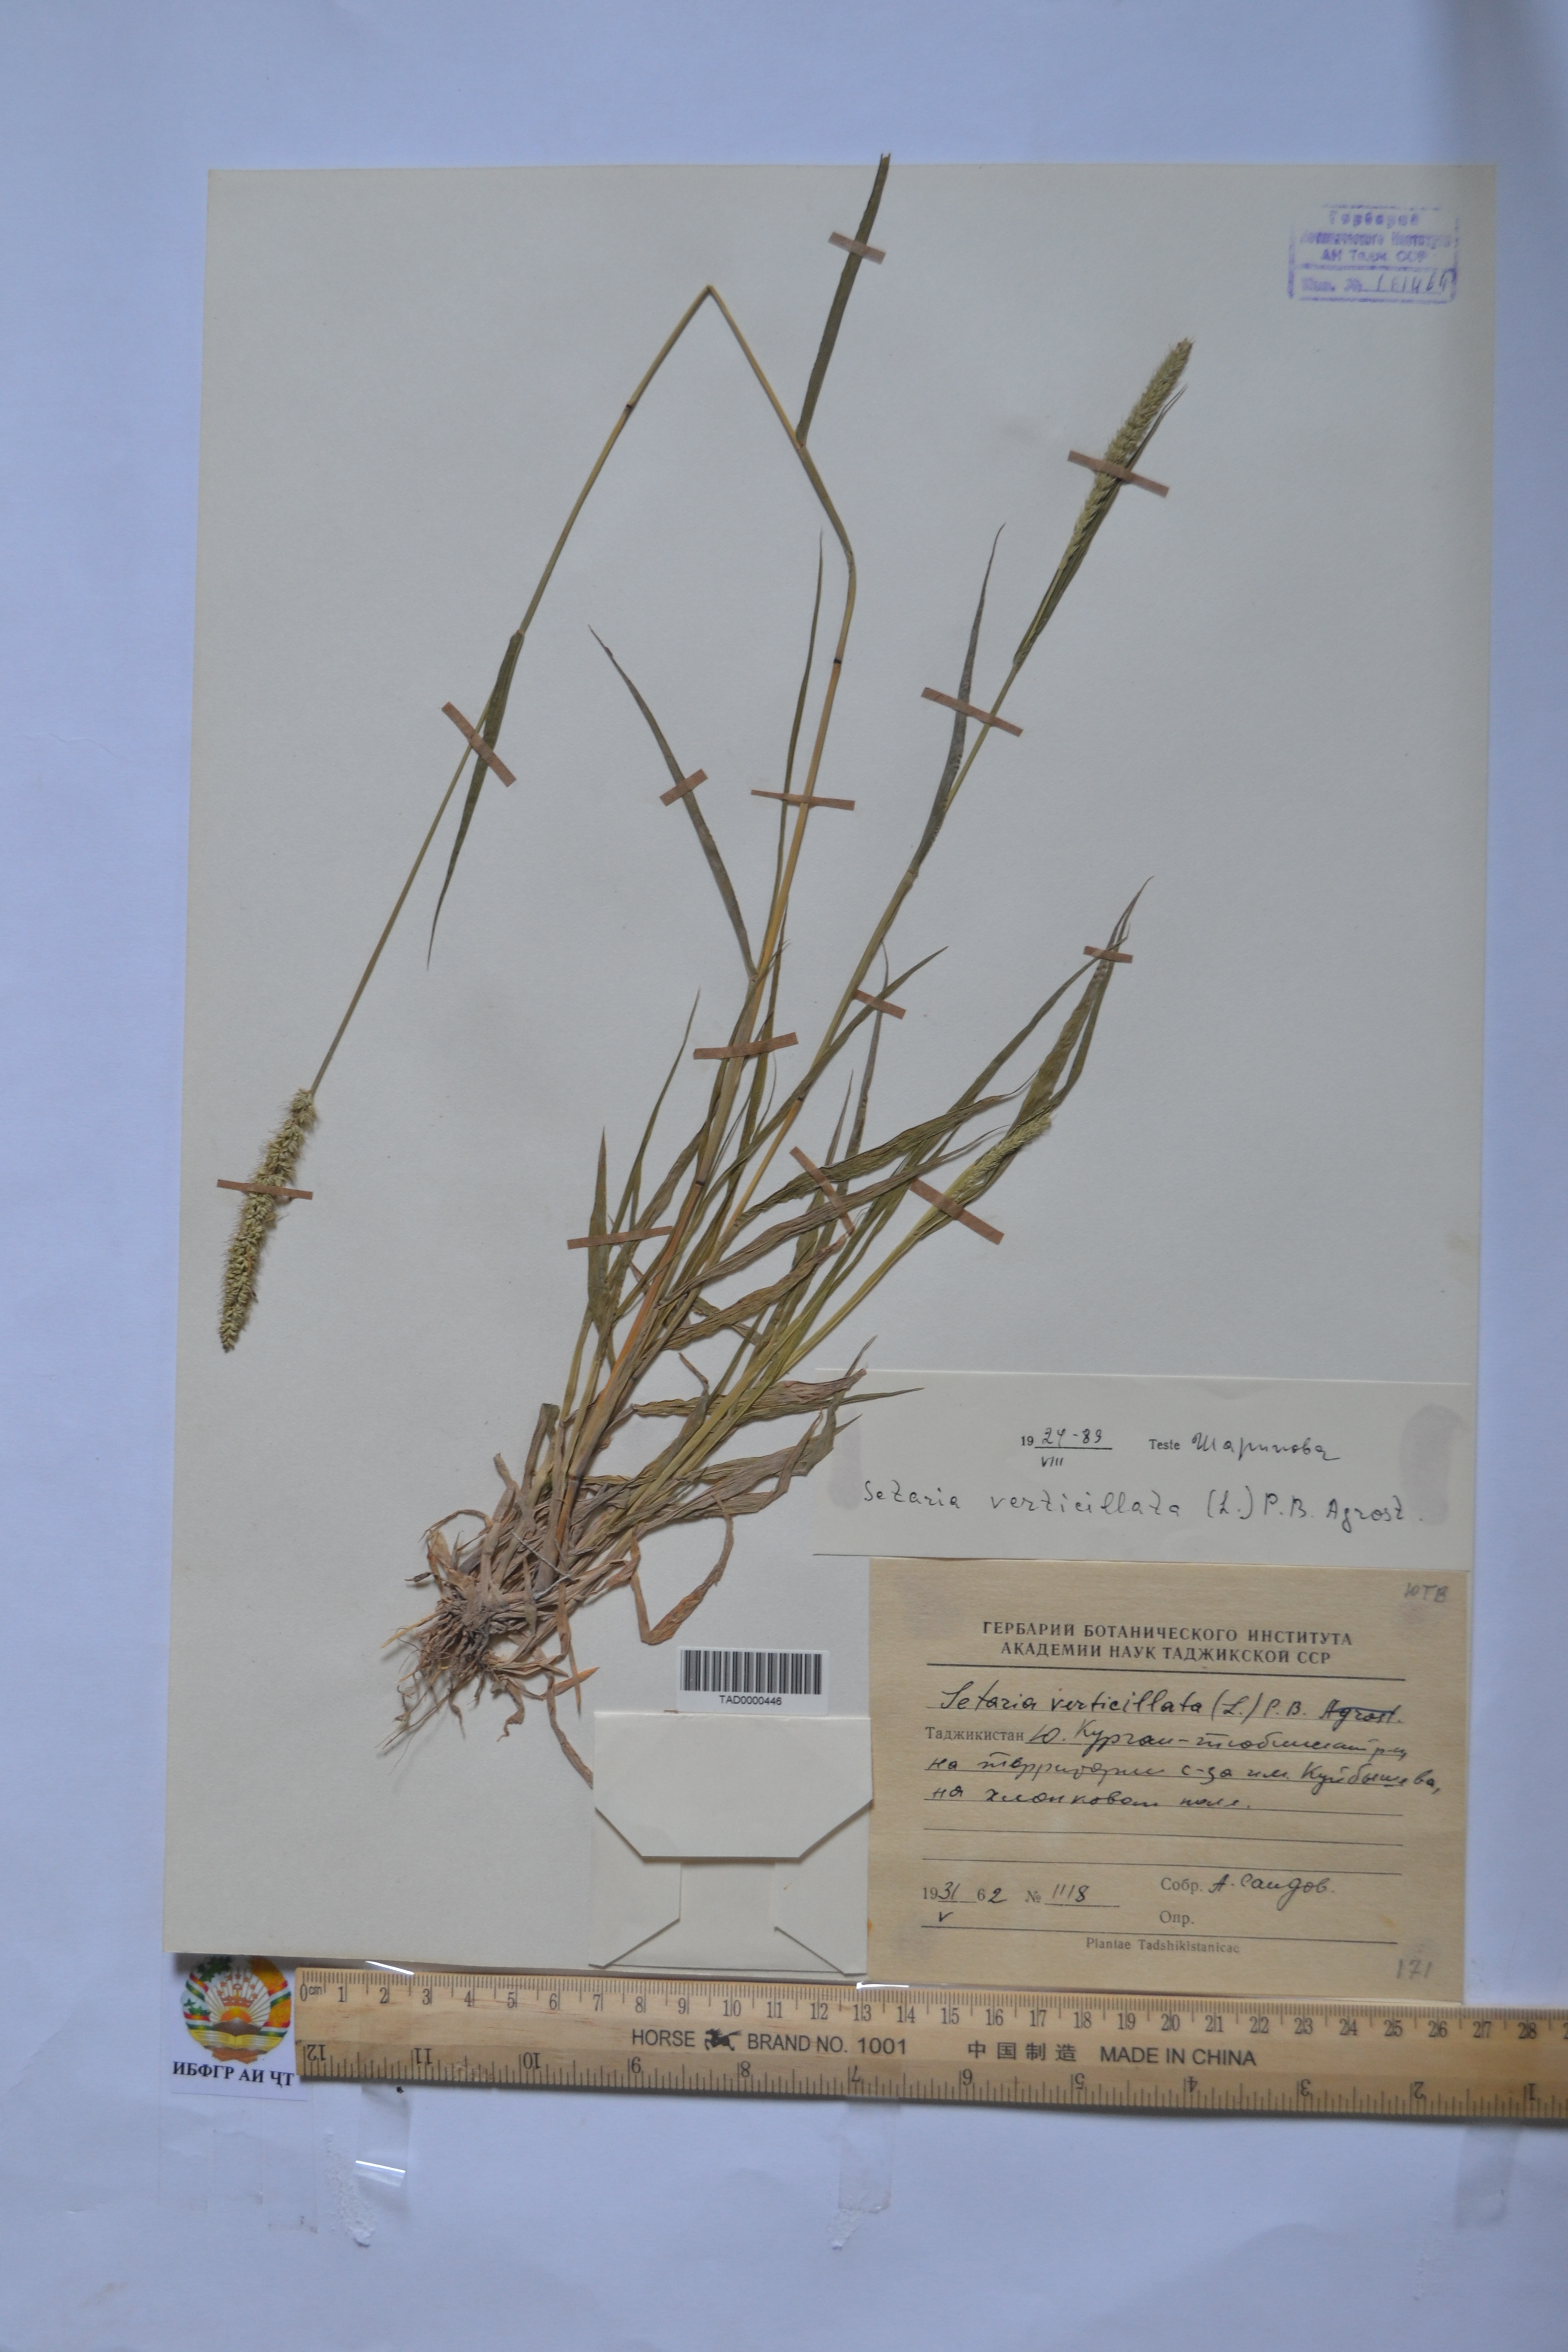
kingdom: Plantae
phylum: Tracheophyta
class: Liliopsida
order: Poales
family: Poaceae
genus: Setaria
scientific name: Setaria verticillata
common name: Hooked bristlegrass
